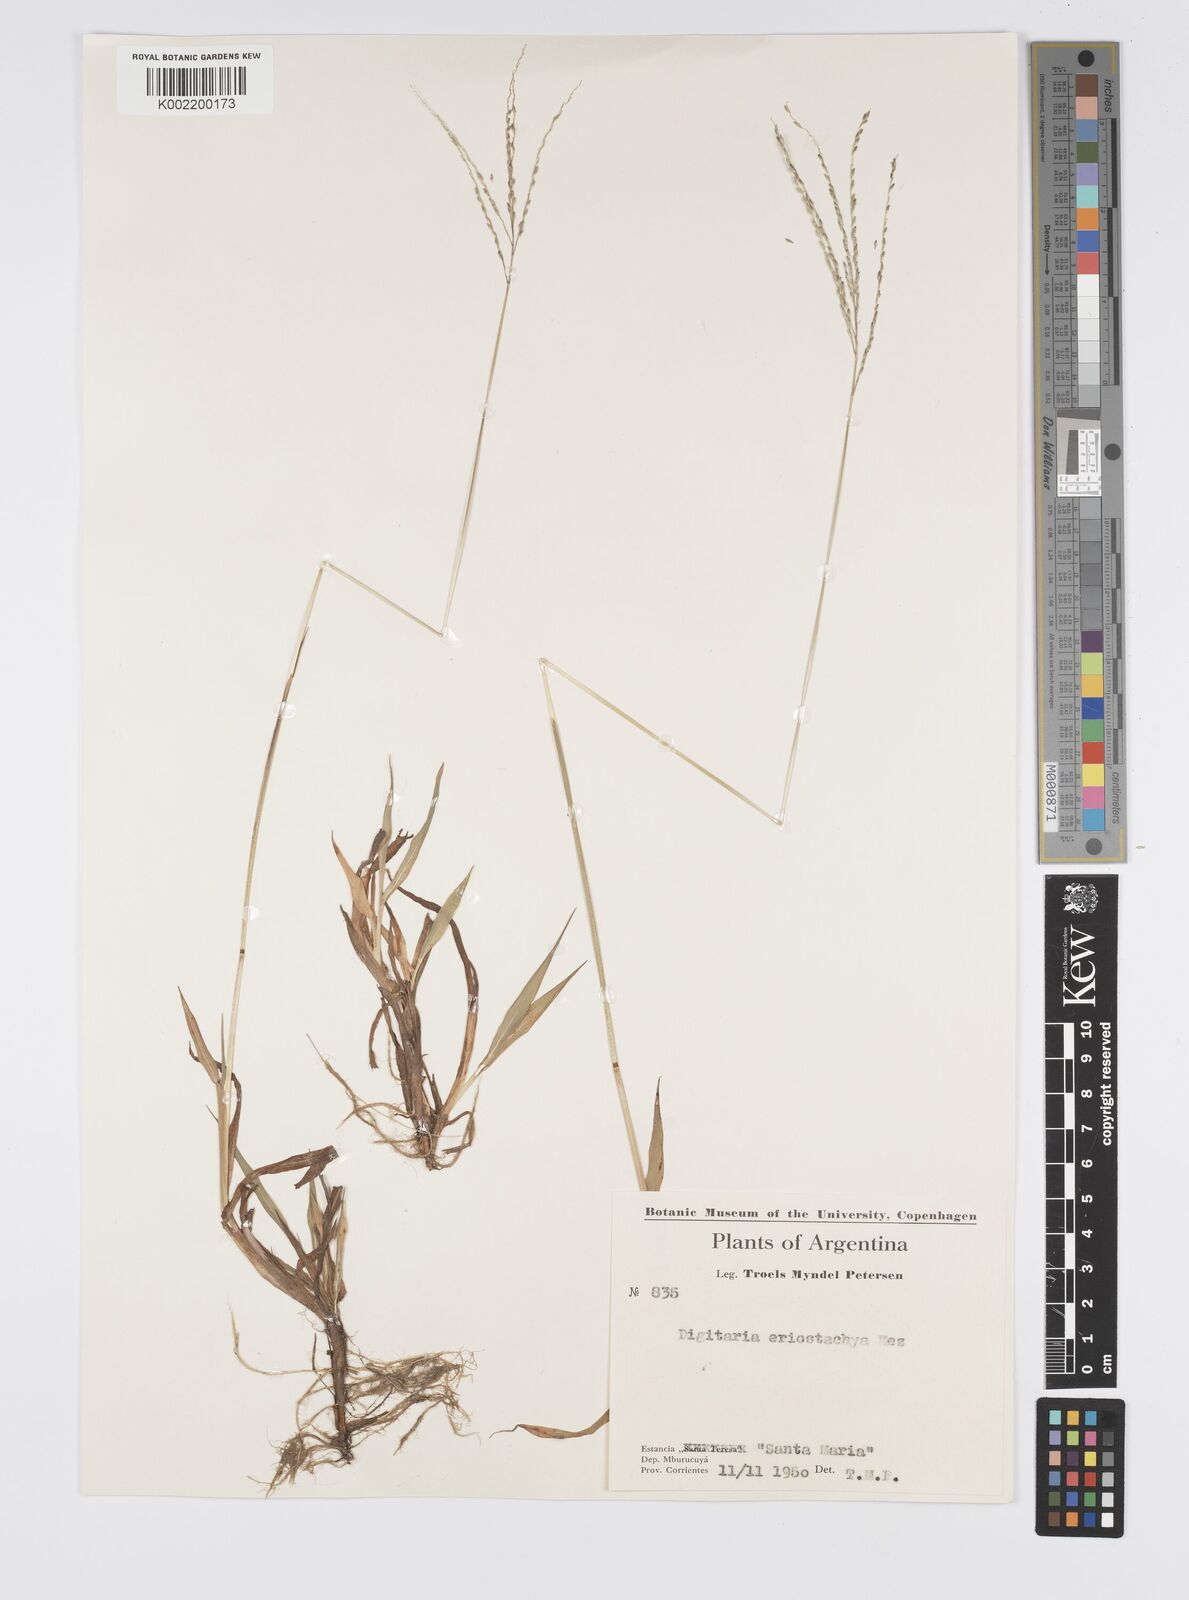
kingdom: Plantae
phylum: Tracheophyta
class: Liliopsida
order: Poales
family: Poaceae
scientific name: Poaceae
